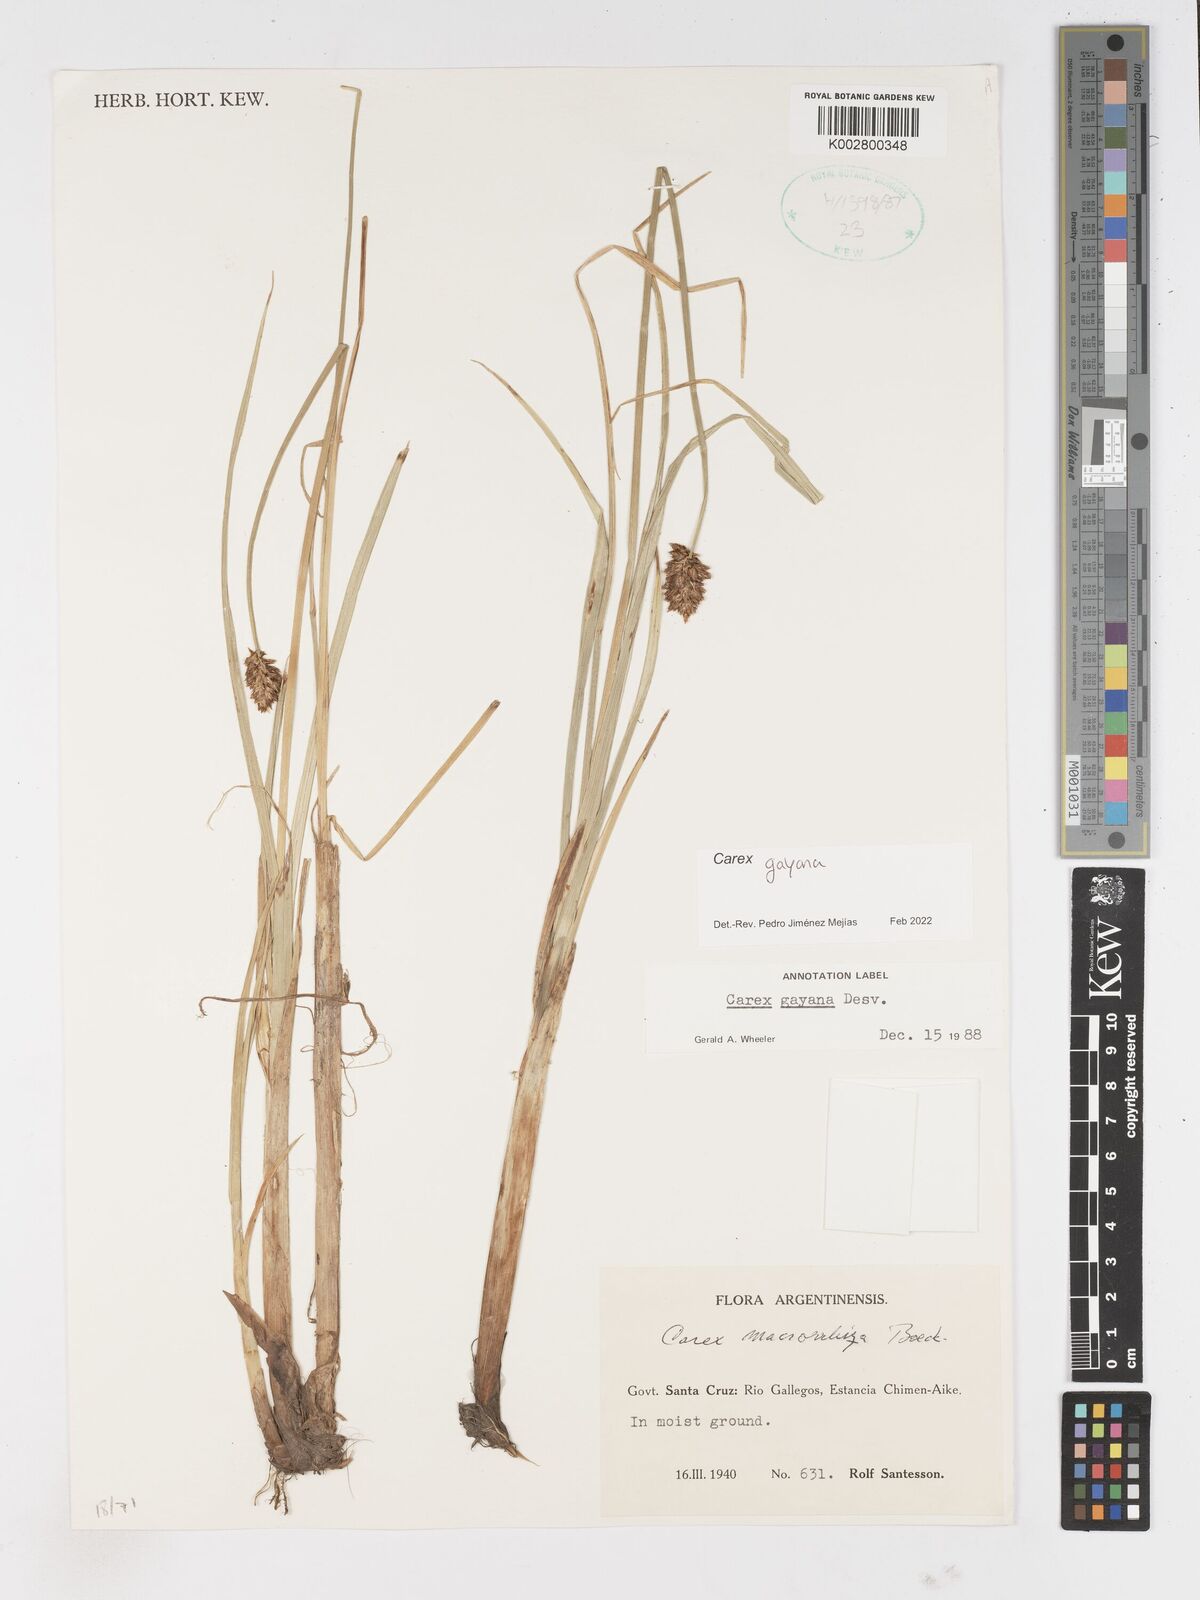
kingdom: Plantae
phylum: Tracheophyta
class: Liliopsida
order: Poales
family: Cyperaceae
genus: Carex
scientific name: Carex gayana
